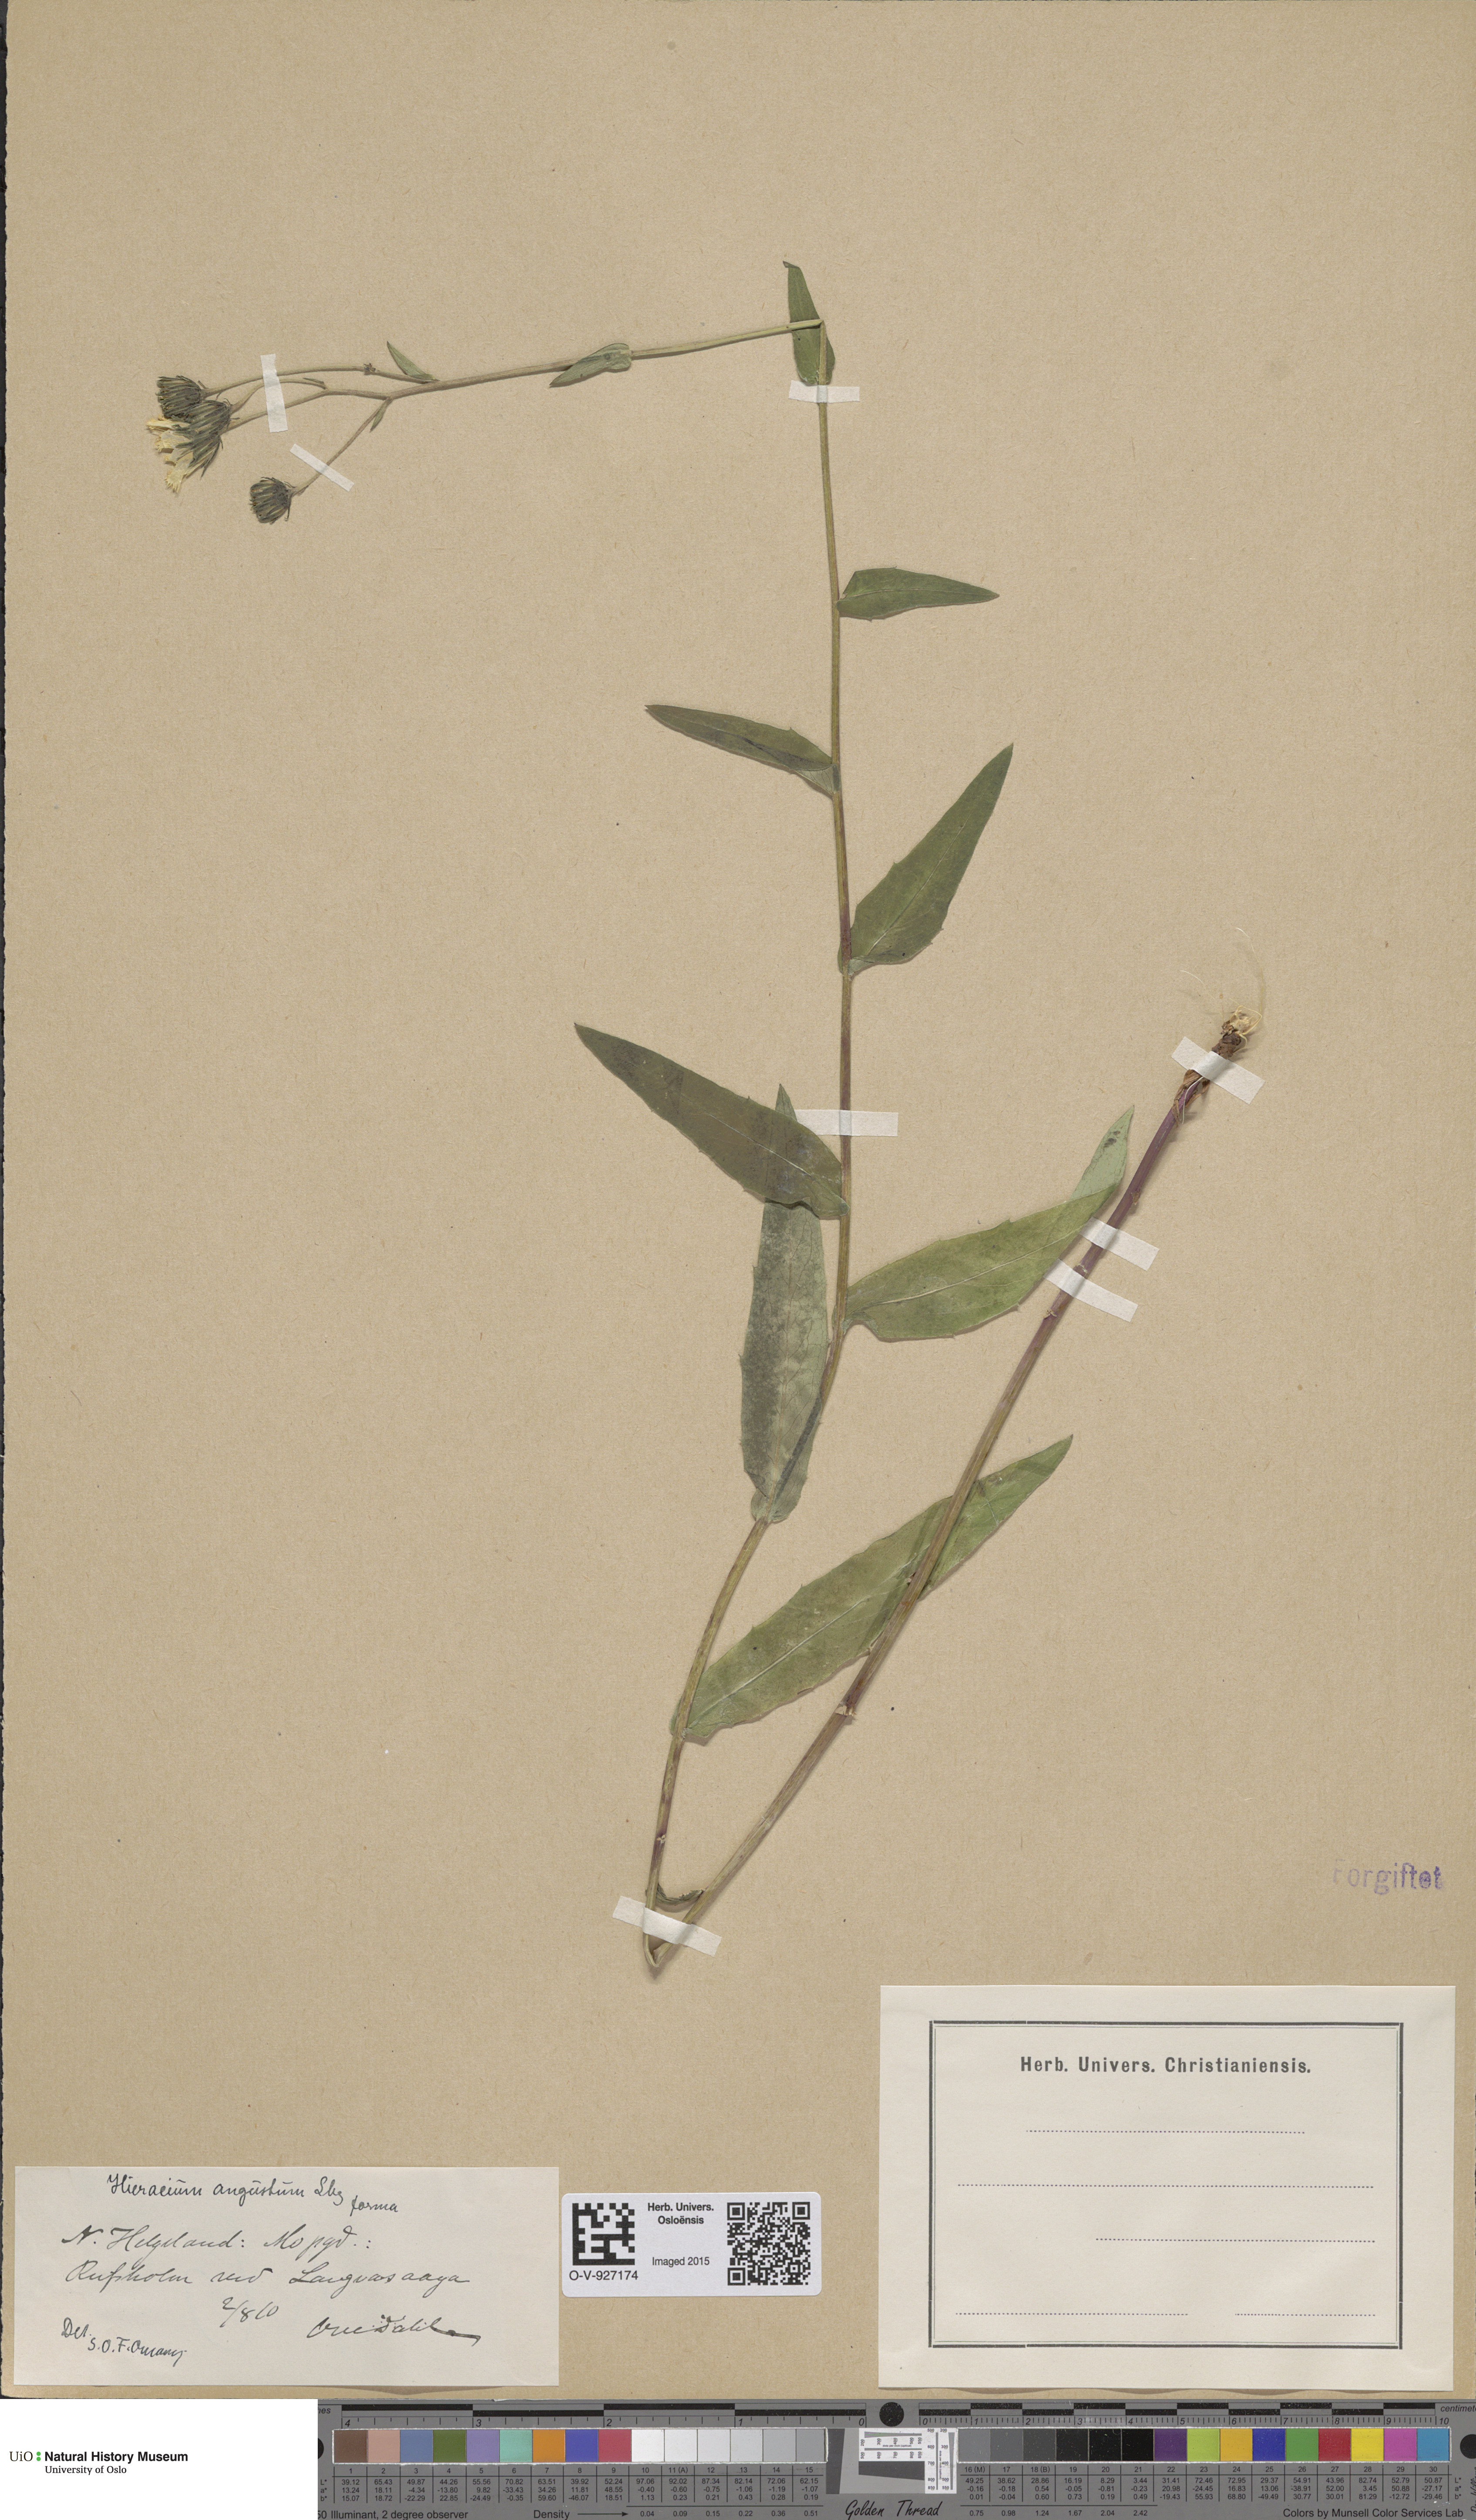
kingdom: Plantae
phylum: Tracheophyta
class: Magnoliopsida
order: Asterales
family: Asteraceae
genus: Hieracium
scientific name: Hieracium angustum
